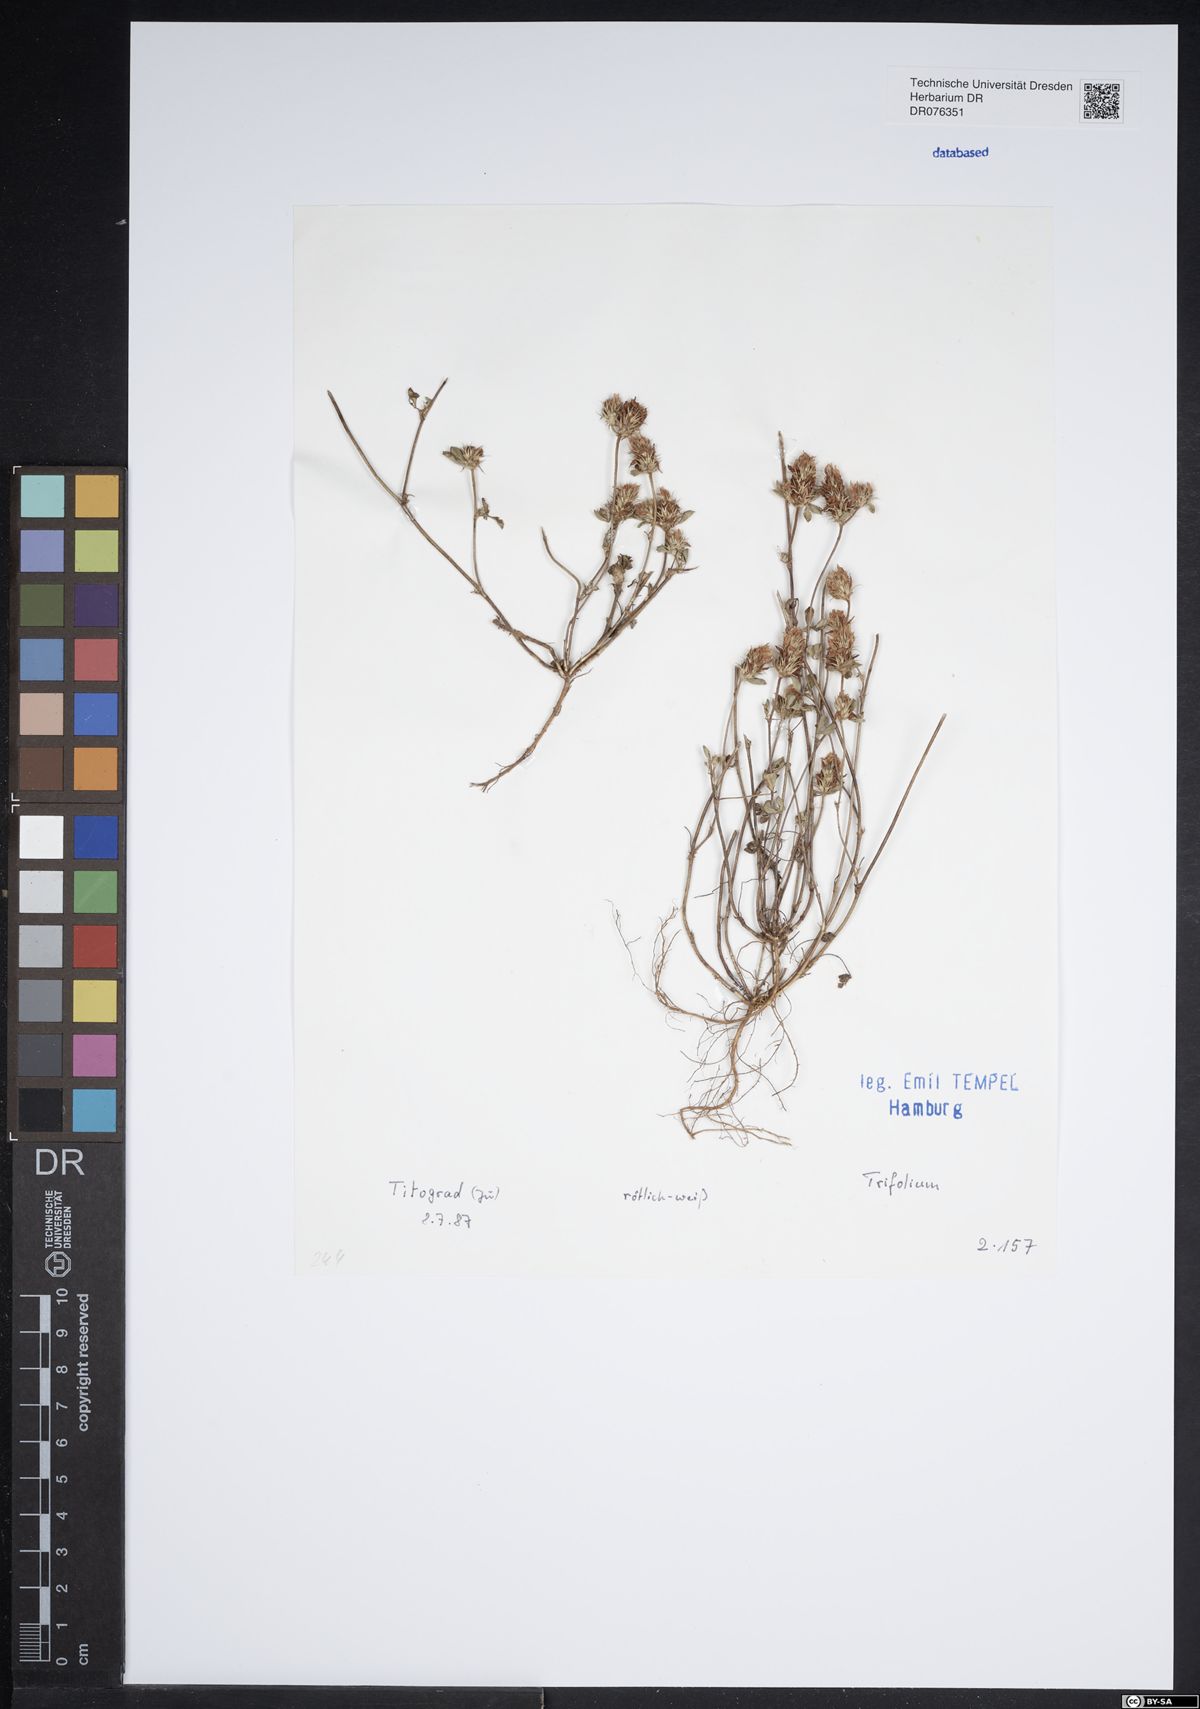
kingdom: Plantae
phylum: Tracheophyta
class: Magnoliopsida
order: Fabales
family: Fabaceae
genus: Trifolium
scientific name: Trifolium
